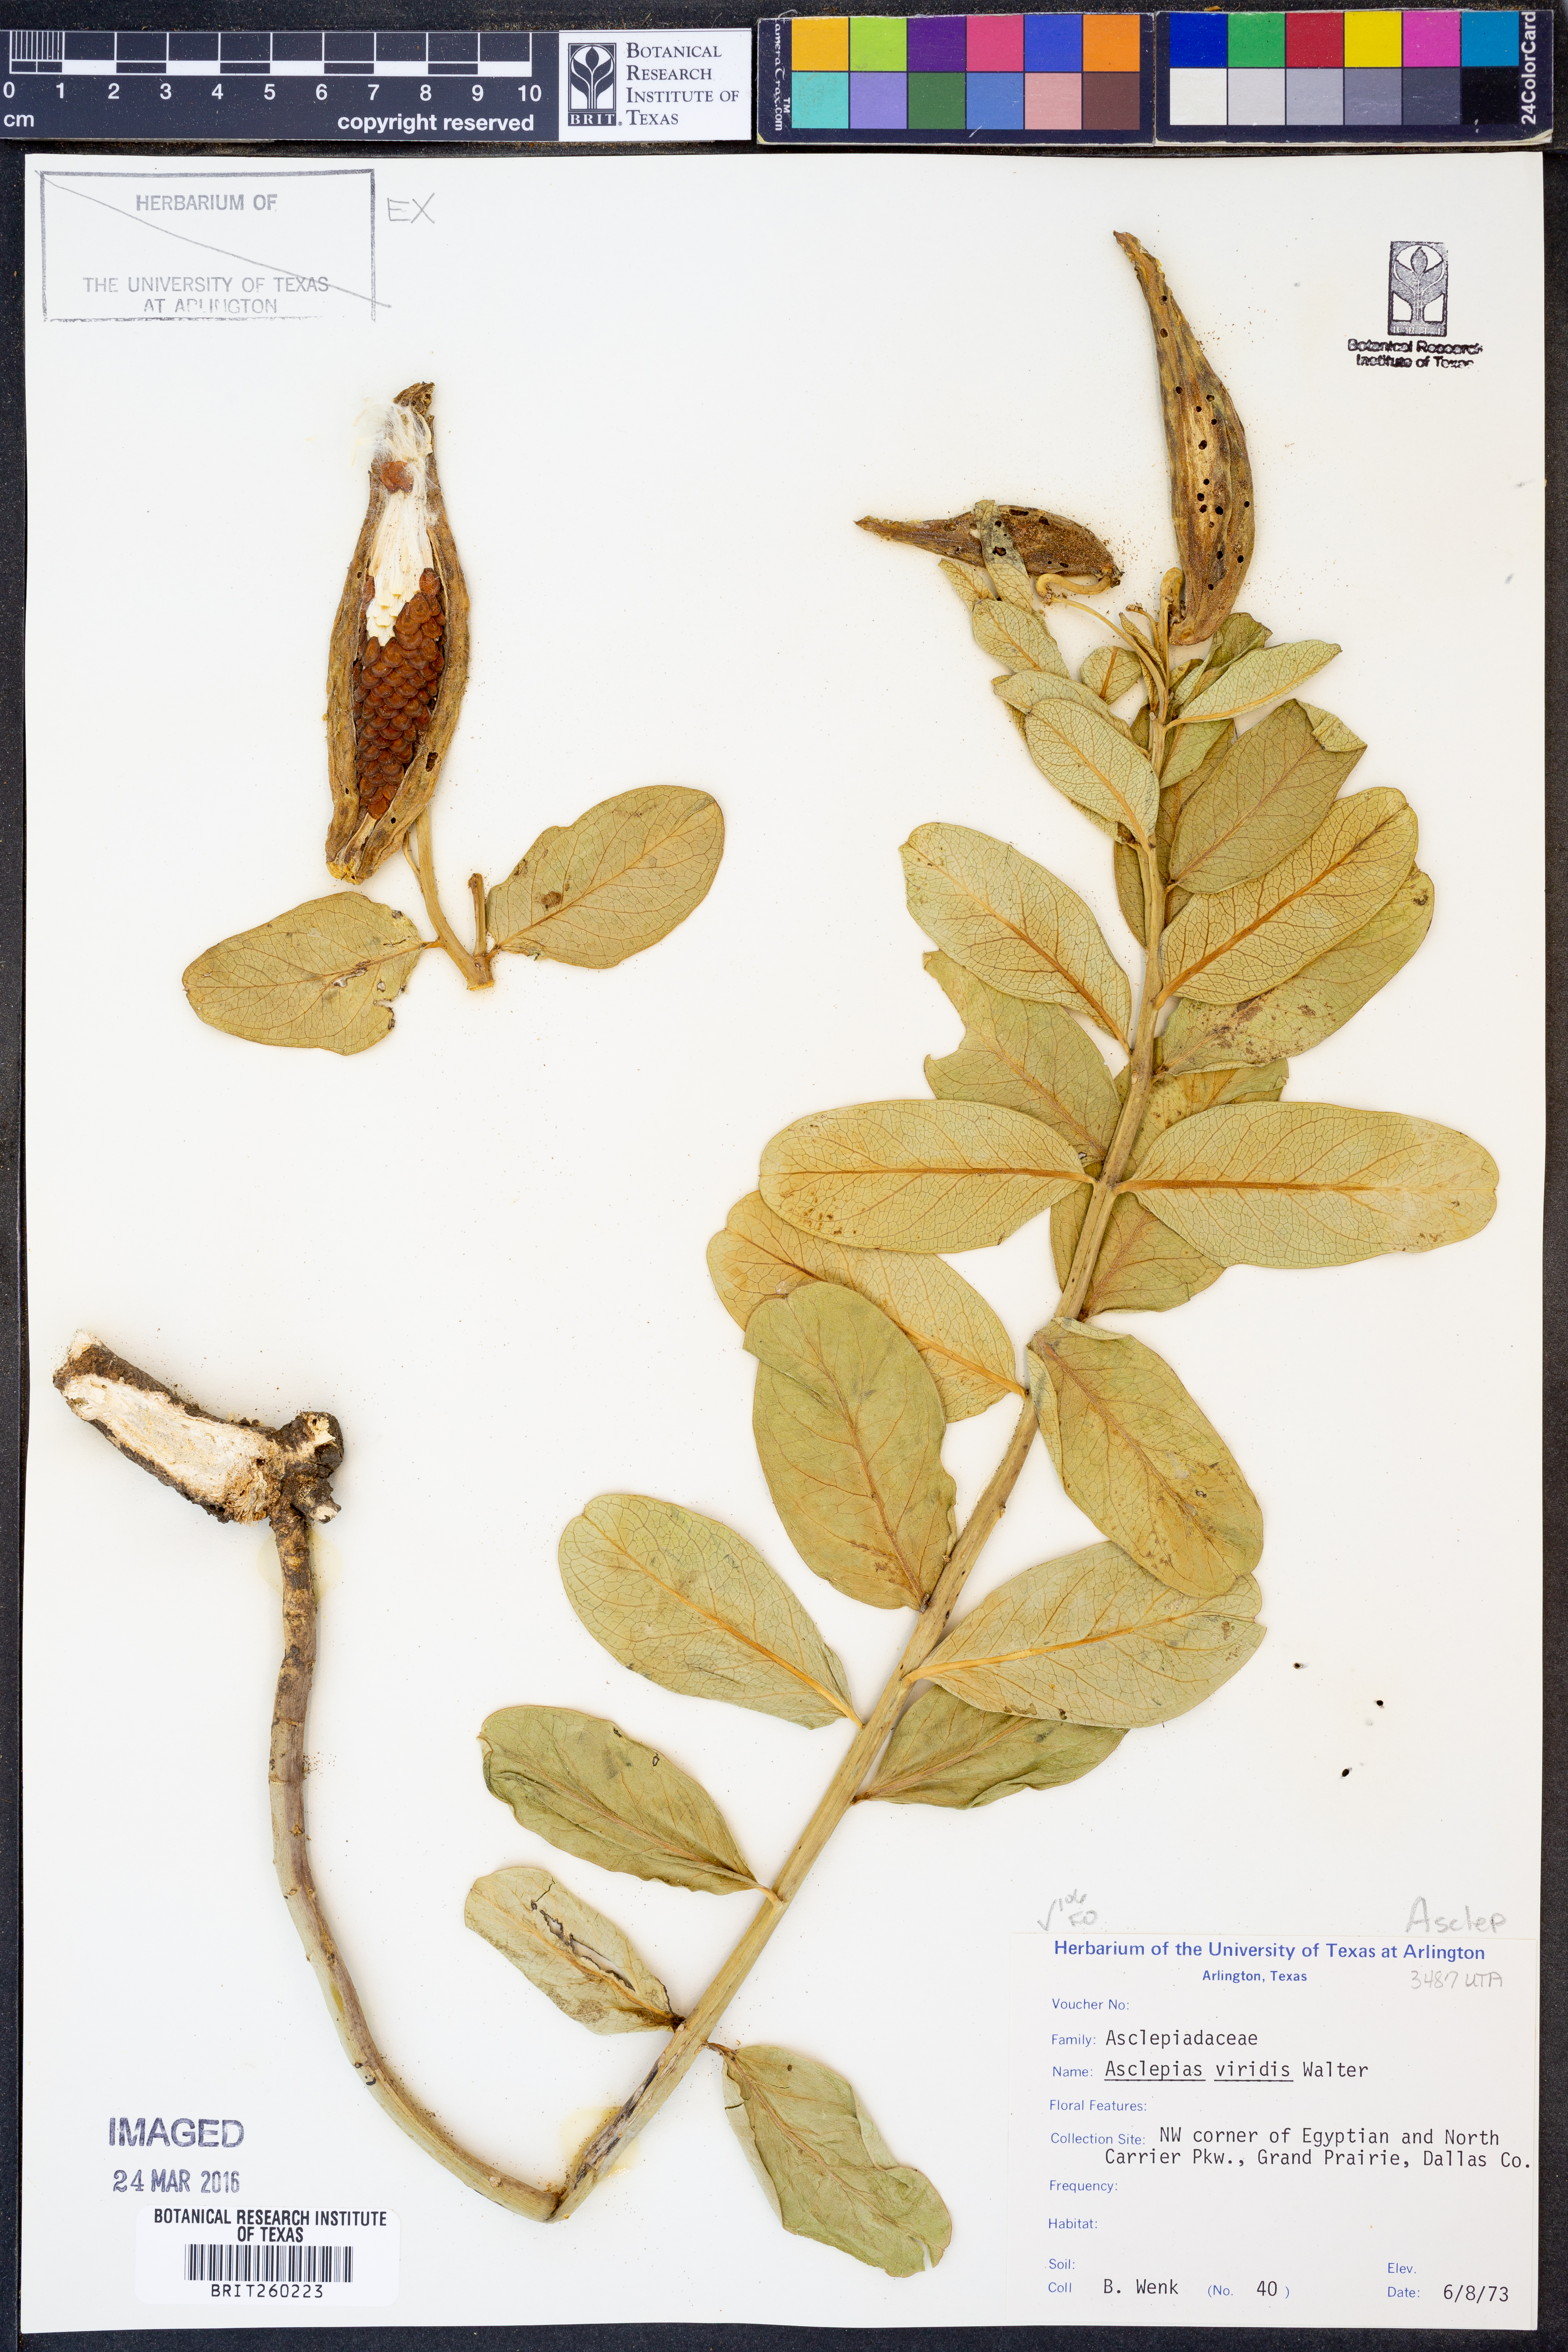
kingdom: Plantae
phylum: Tracheophyta
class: Magnoliopsida
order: Gentianales
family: Apocynaceae
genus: Asclepias
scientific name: Asclepias viridis
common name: Antelope-horns
